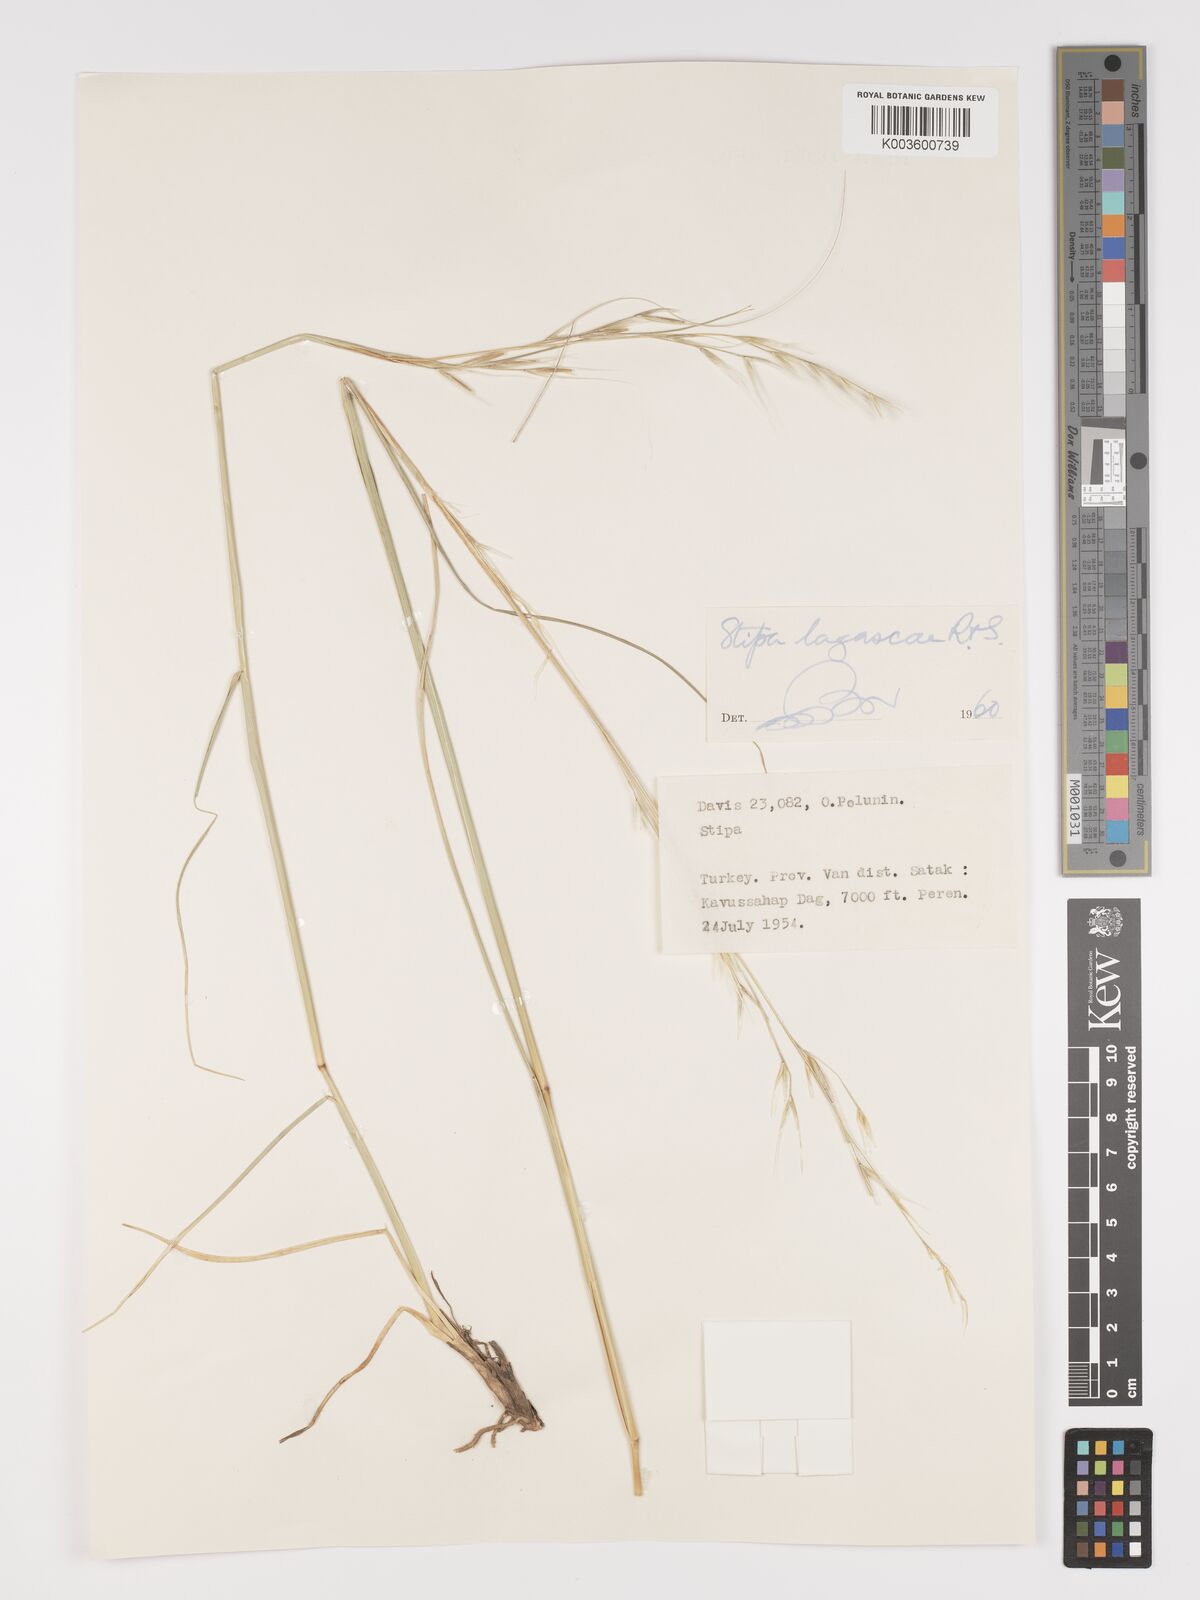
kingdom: Plantae
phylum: Tracheophyta
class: Liliopsida
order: Poales
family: Poaceae
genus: Stipa
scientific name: Stipa lagascae
